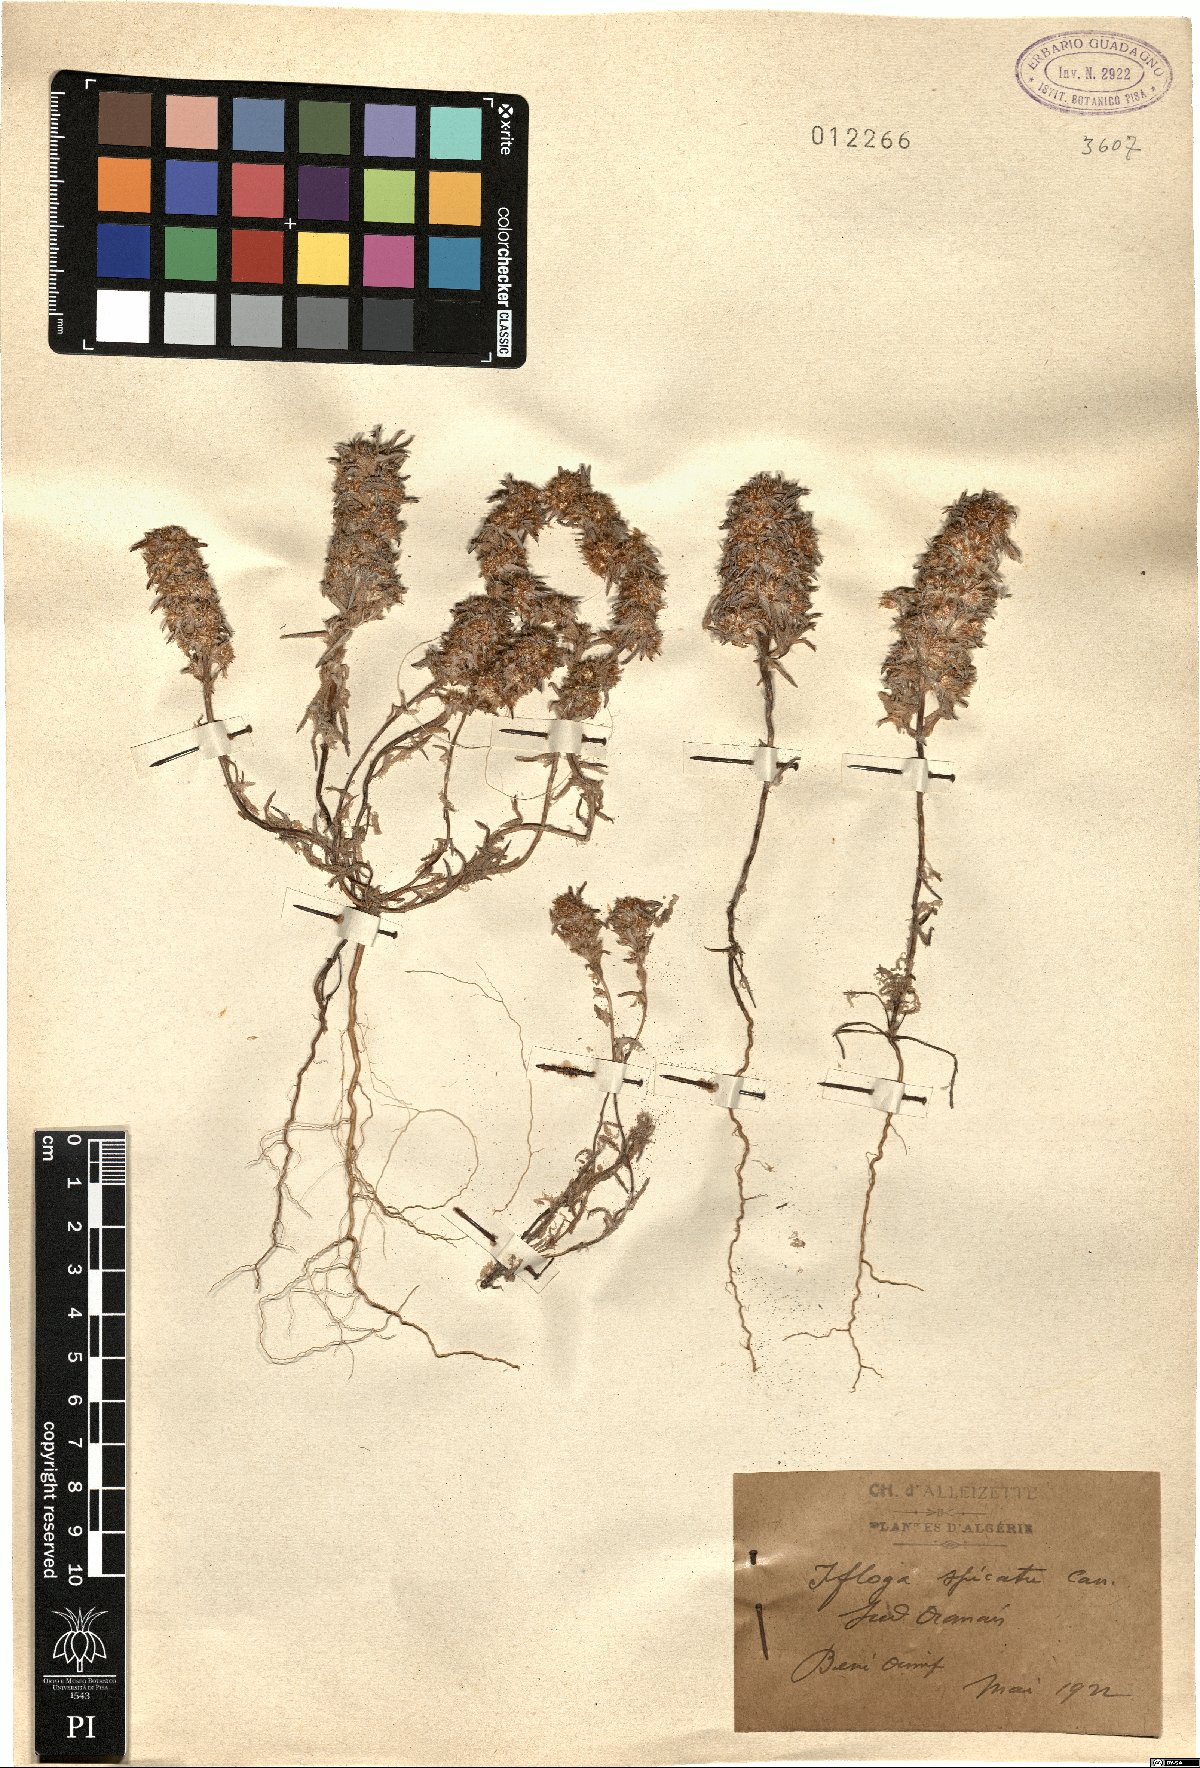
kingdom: Plantae
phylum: Tracheophyta
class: Magnoliopsida
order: Asterales
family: Asteraceae
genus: Ifloga
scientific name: Ifloga spicata
